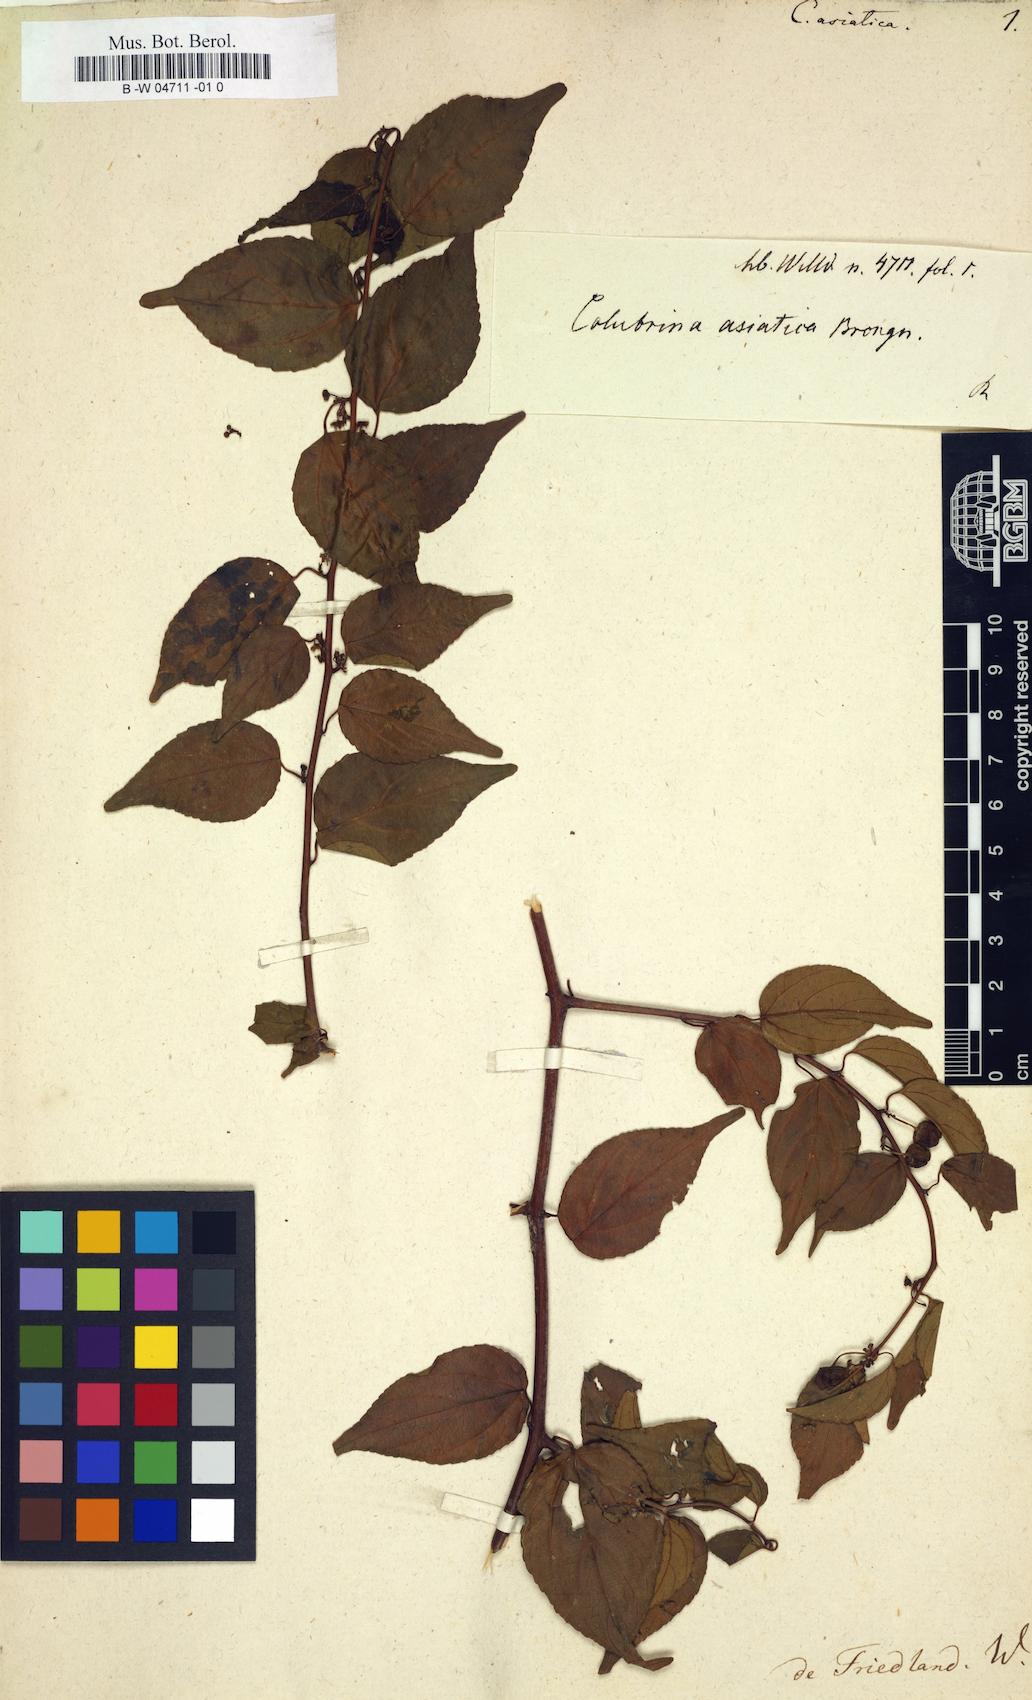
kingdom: Plantae
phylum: Tracheophyta
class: Magnoliopsida
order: Rosales
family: Rhamnaceae
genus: Colubrina
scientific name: Colubrina asiatica
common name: Asian nakedwood
